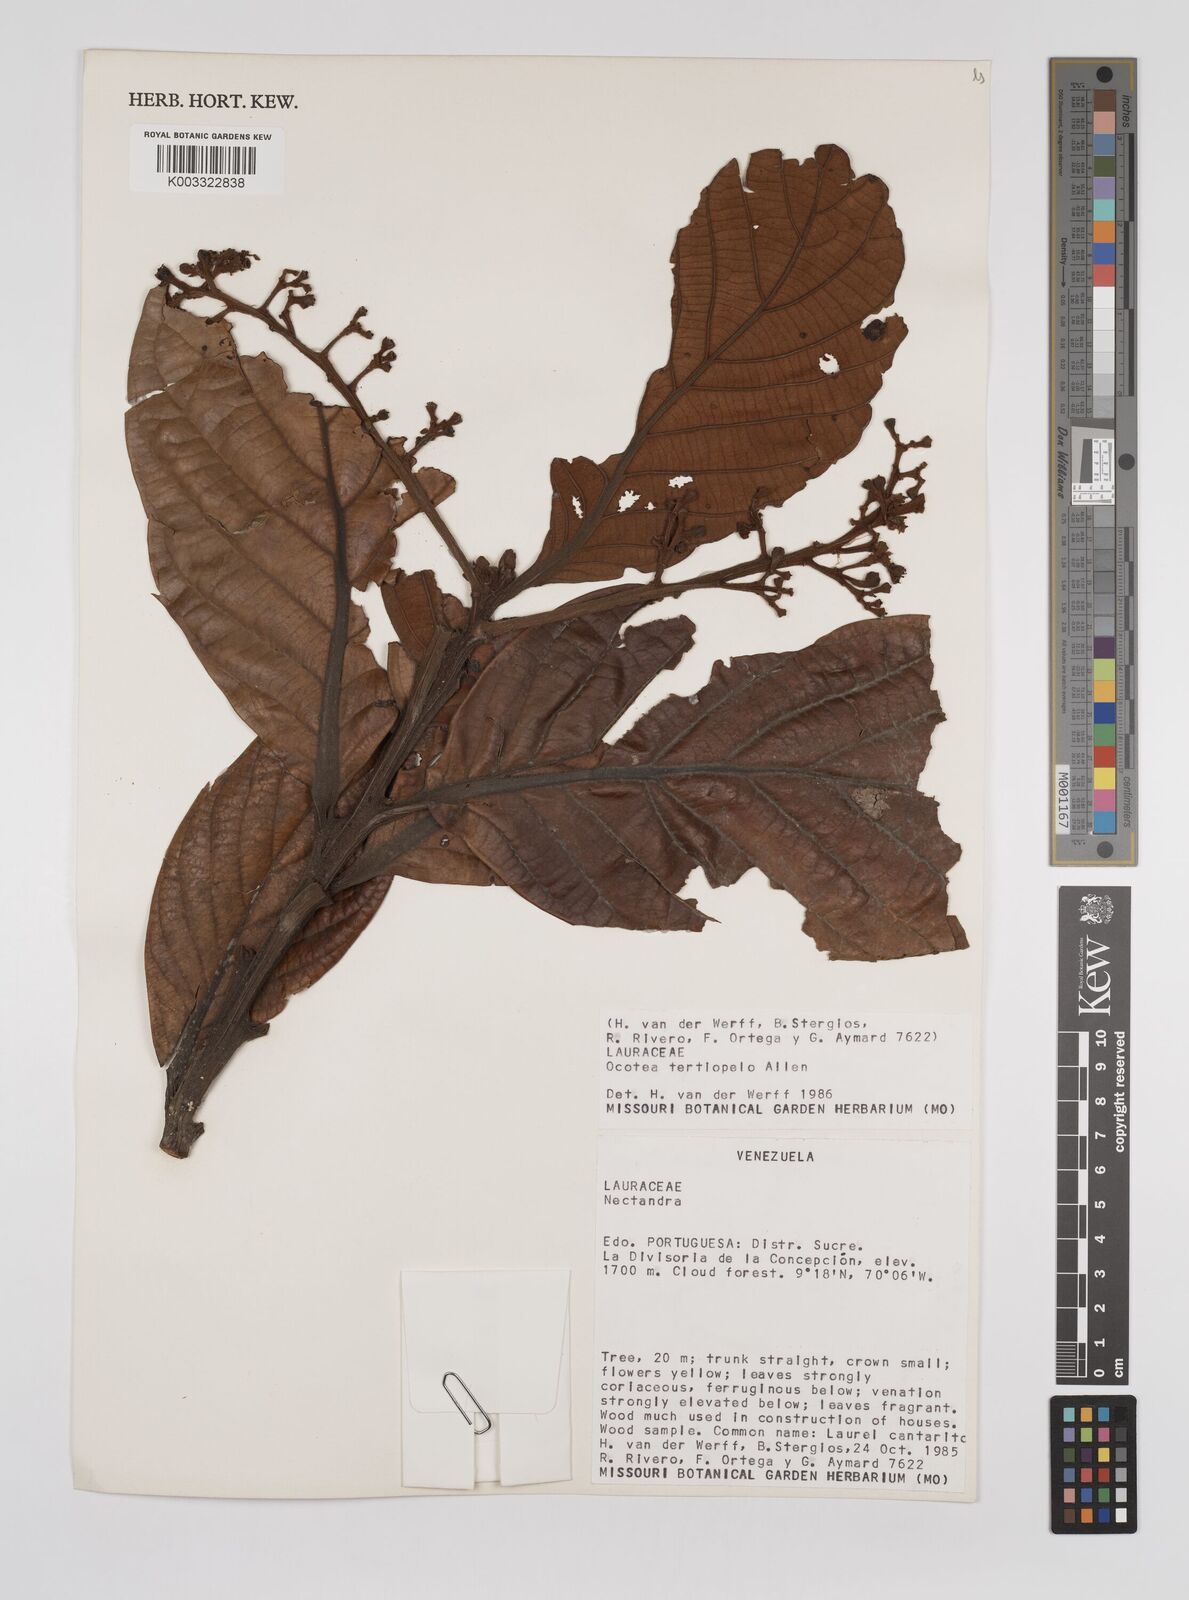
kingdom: Plantae
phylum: Tracheophyta
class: Magnoliopsida
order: Laurales
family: Lauraceae
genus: Ocotea
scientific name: Ocotea terciopelo
